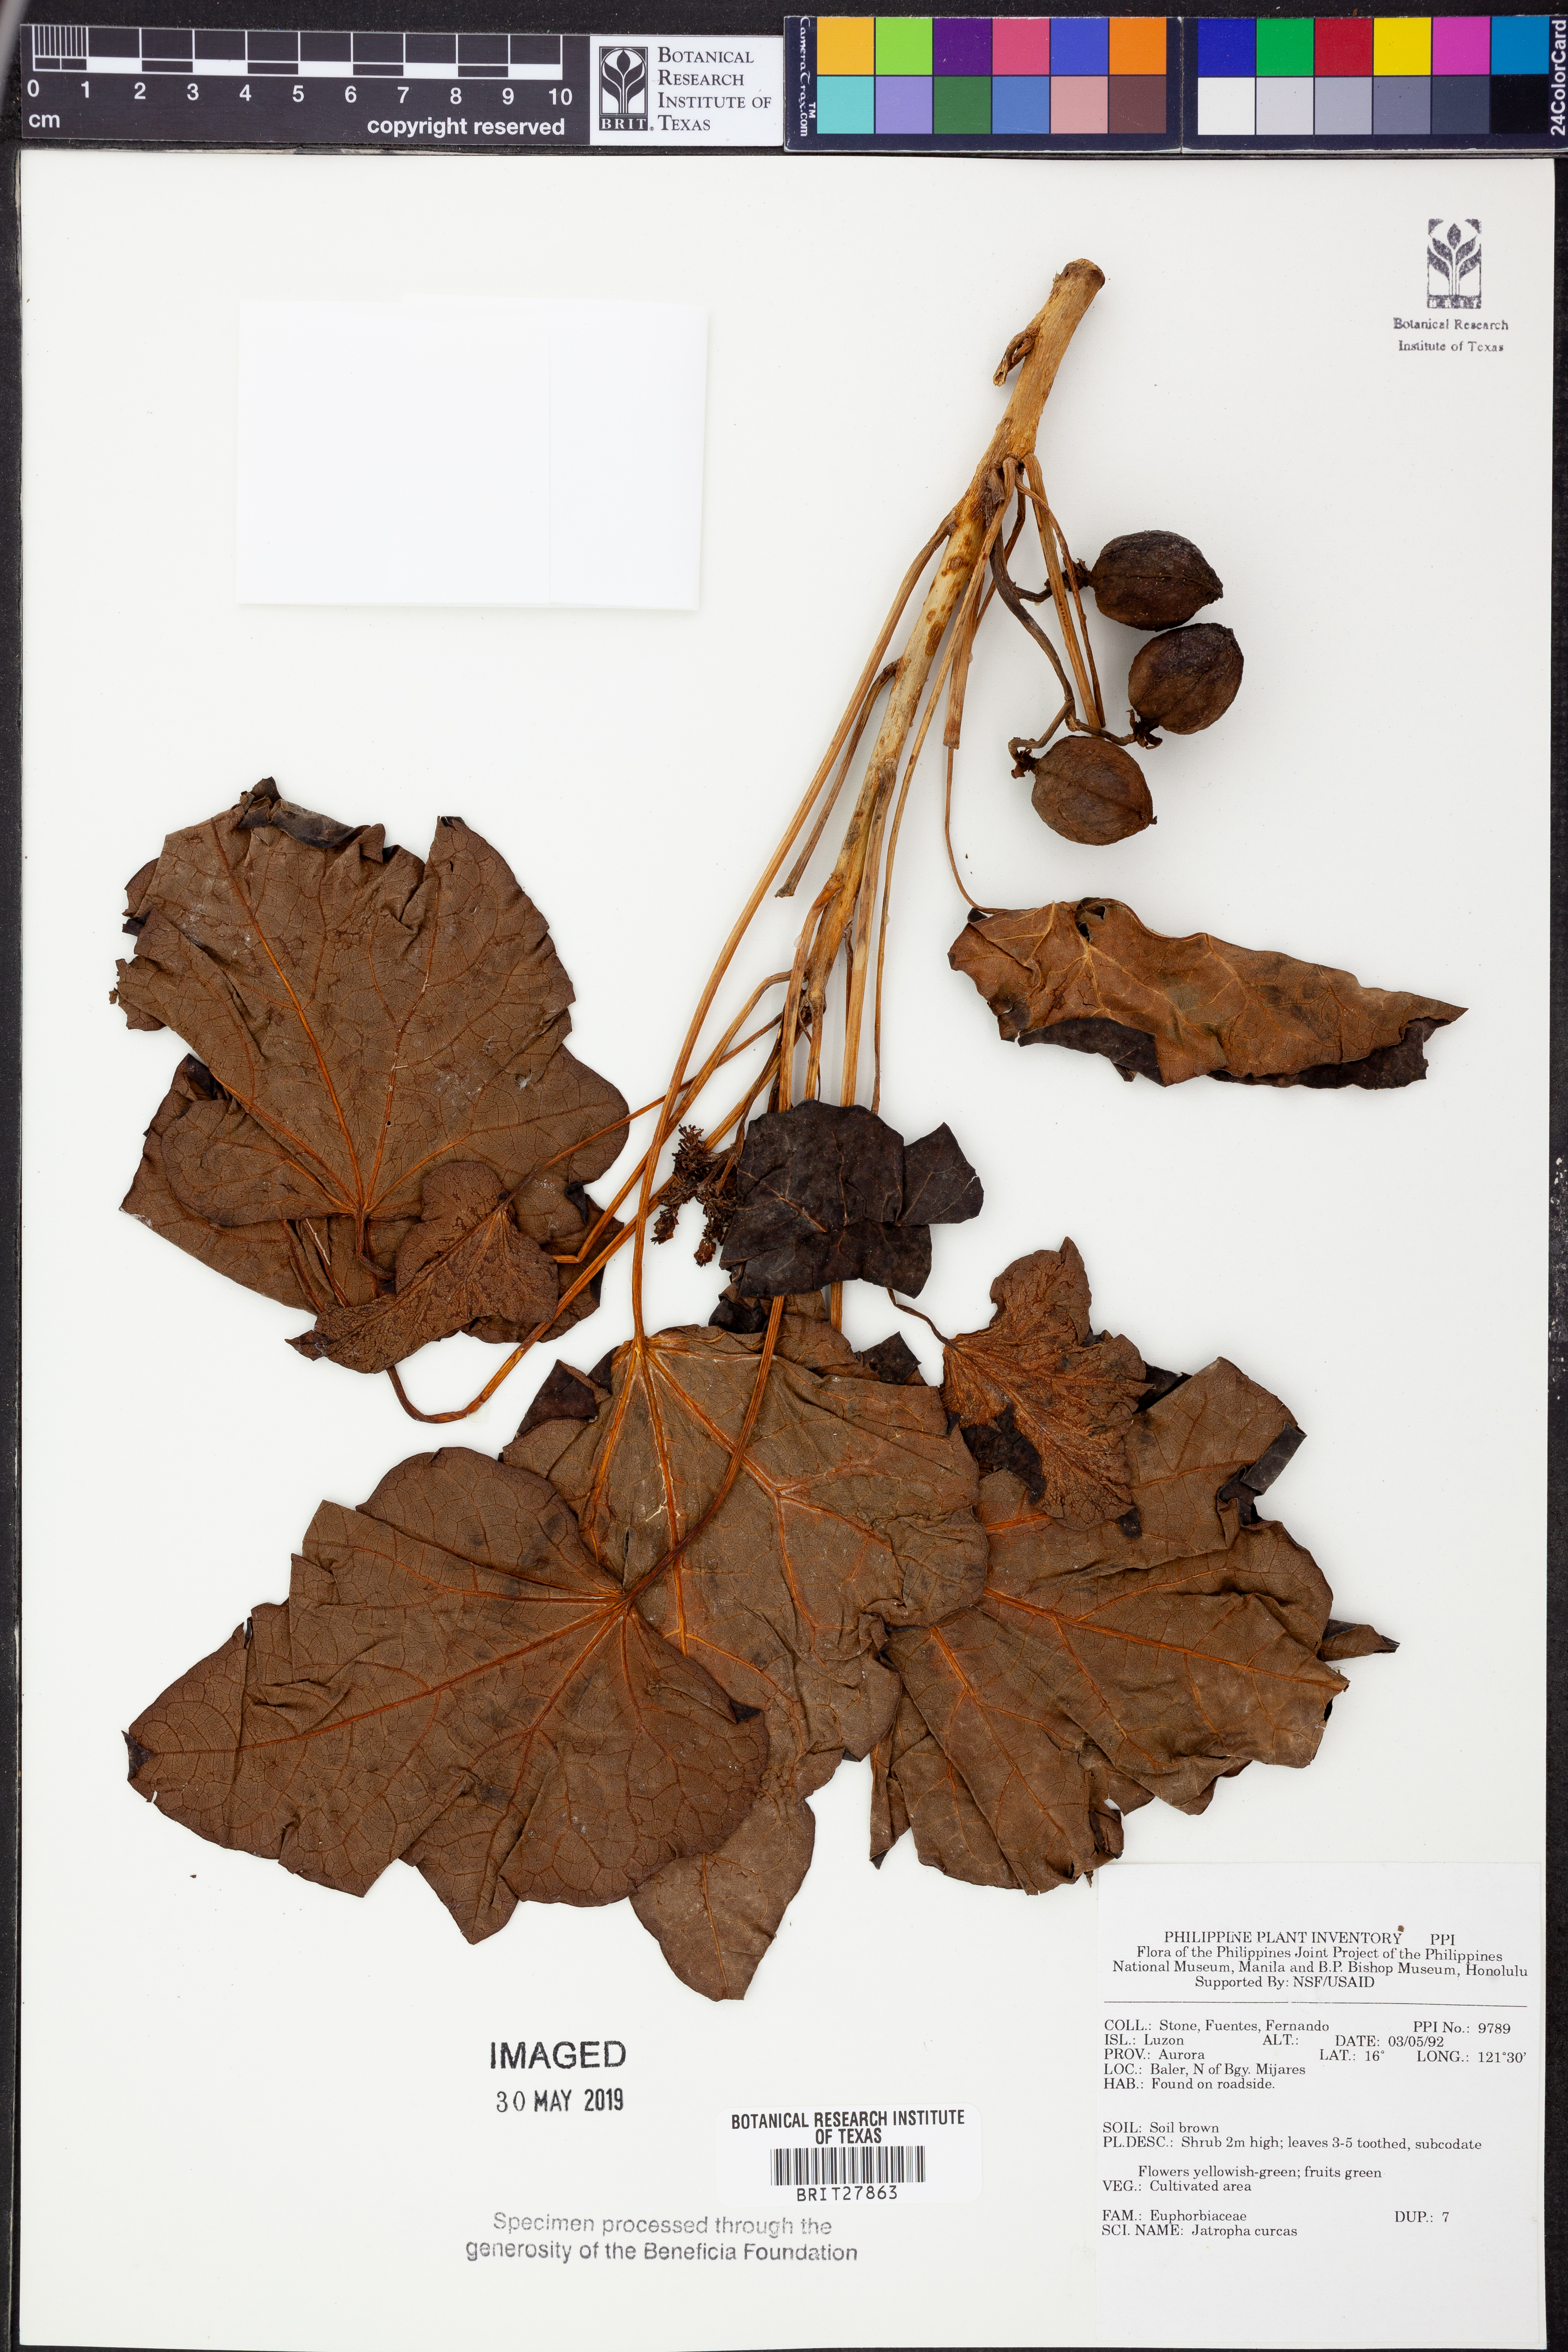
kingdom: Plantae
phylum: Tracheophyta
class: Magnoliopsida
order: Malpighiales
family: Euphorbiaceae
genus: Jatropha
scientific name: Jatropha curcas
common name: Barbados nut
